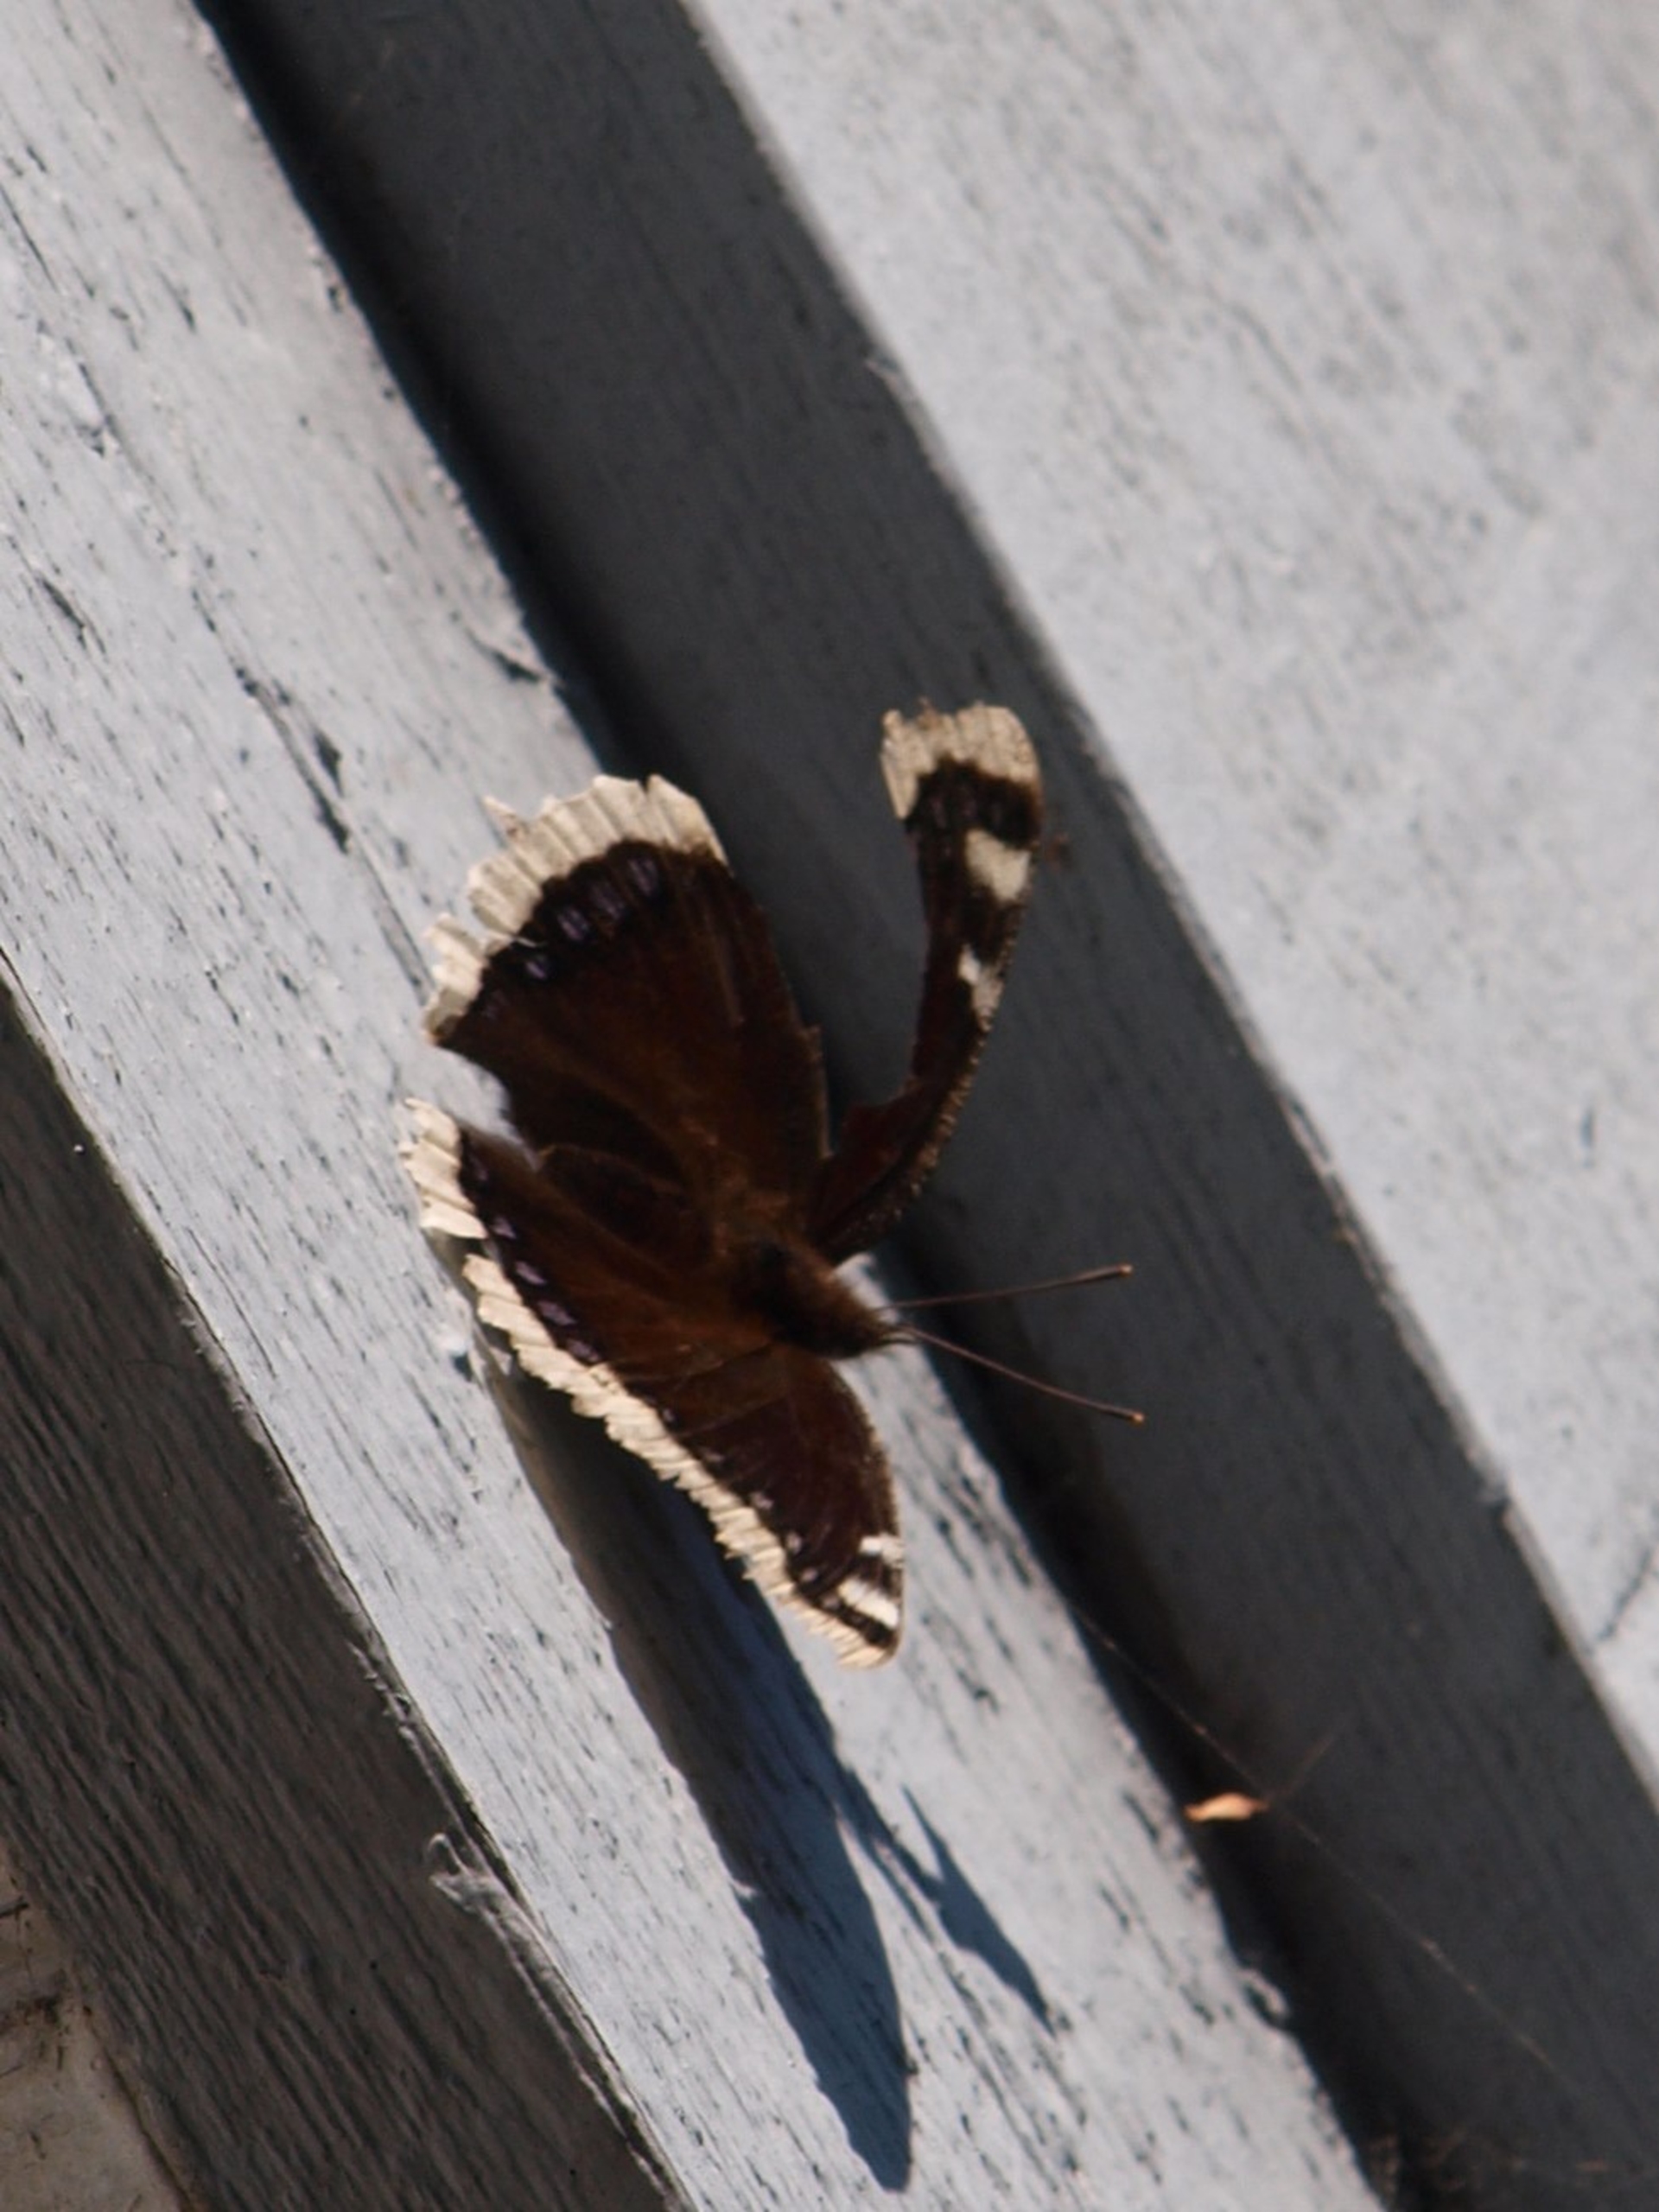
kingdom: Animalia
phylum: Arthropoda
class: Insecta
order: Lepidoptera
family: Nymphalidae
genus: Nymphalis
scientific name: Nymphalis antiopa
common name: Sørgekåbe
